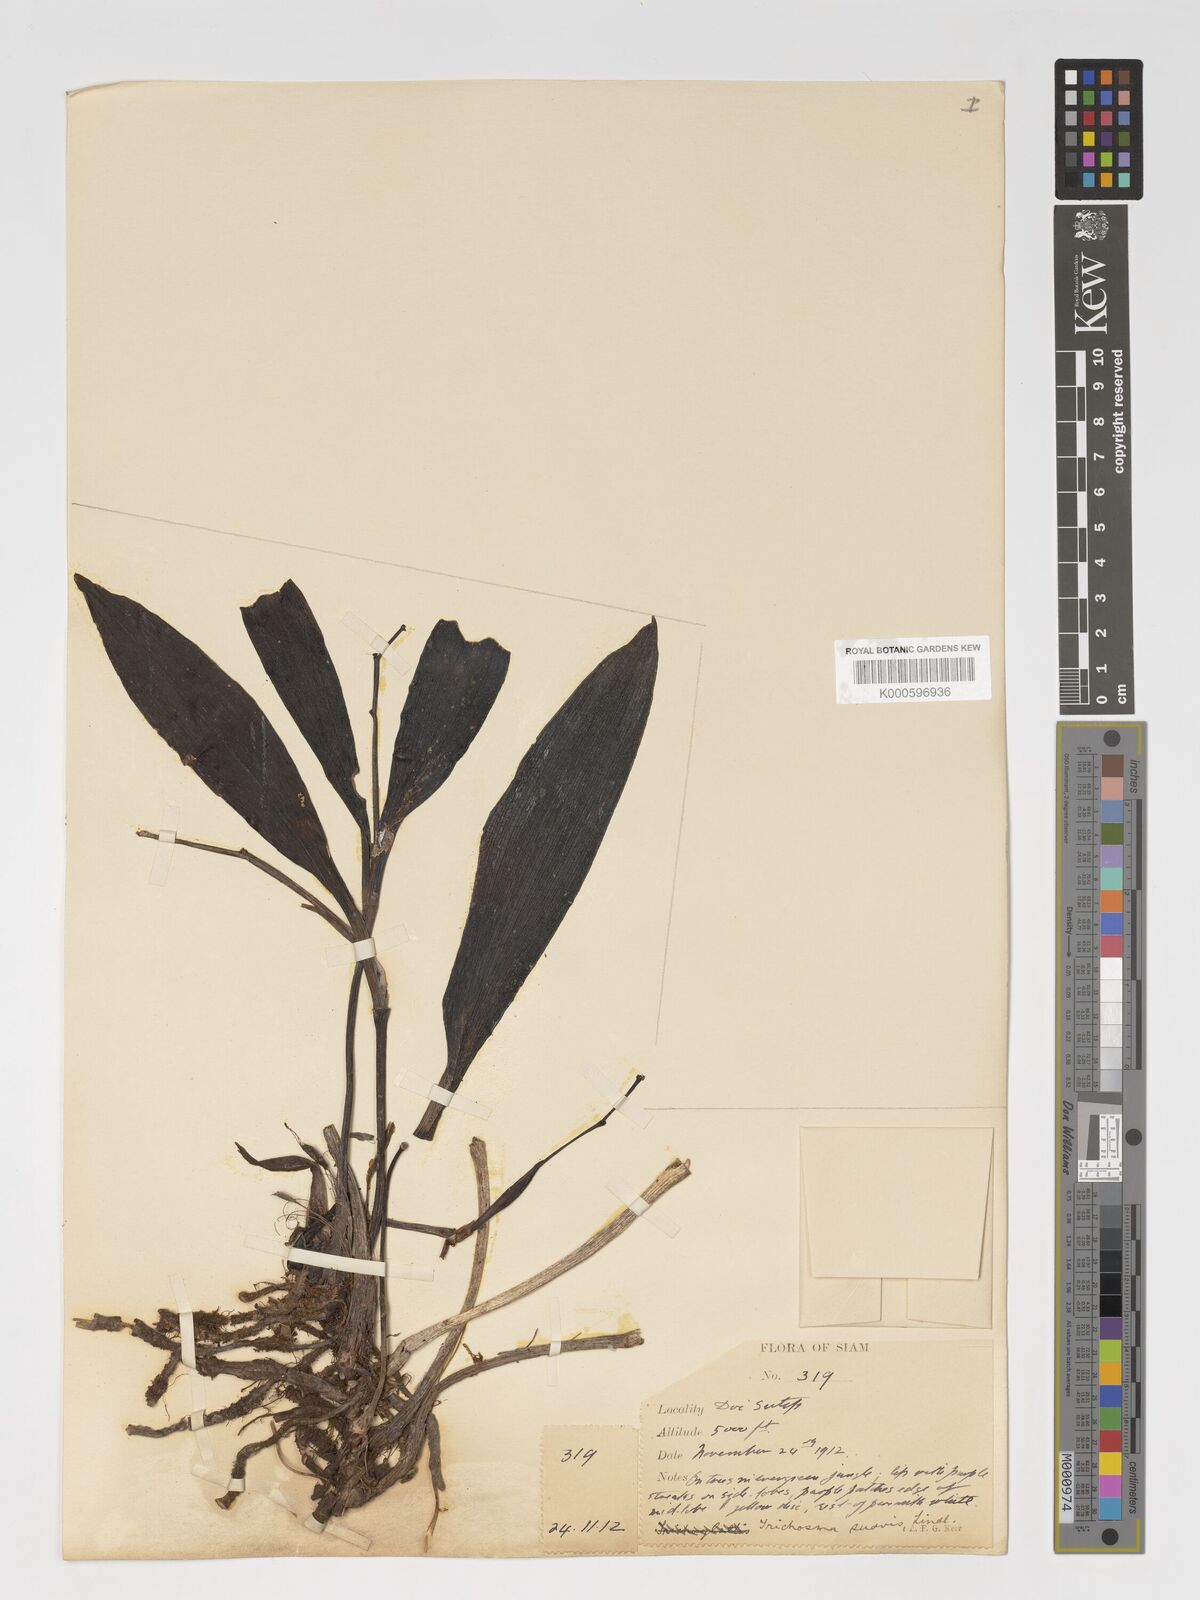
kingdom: Plantae
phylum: Tracheophyta
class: Liliopsida
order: Asparagales
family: Orchidaceae
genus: Eria
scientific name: Eria coronaria
